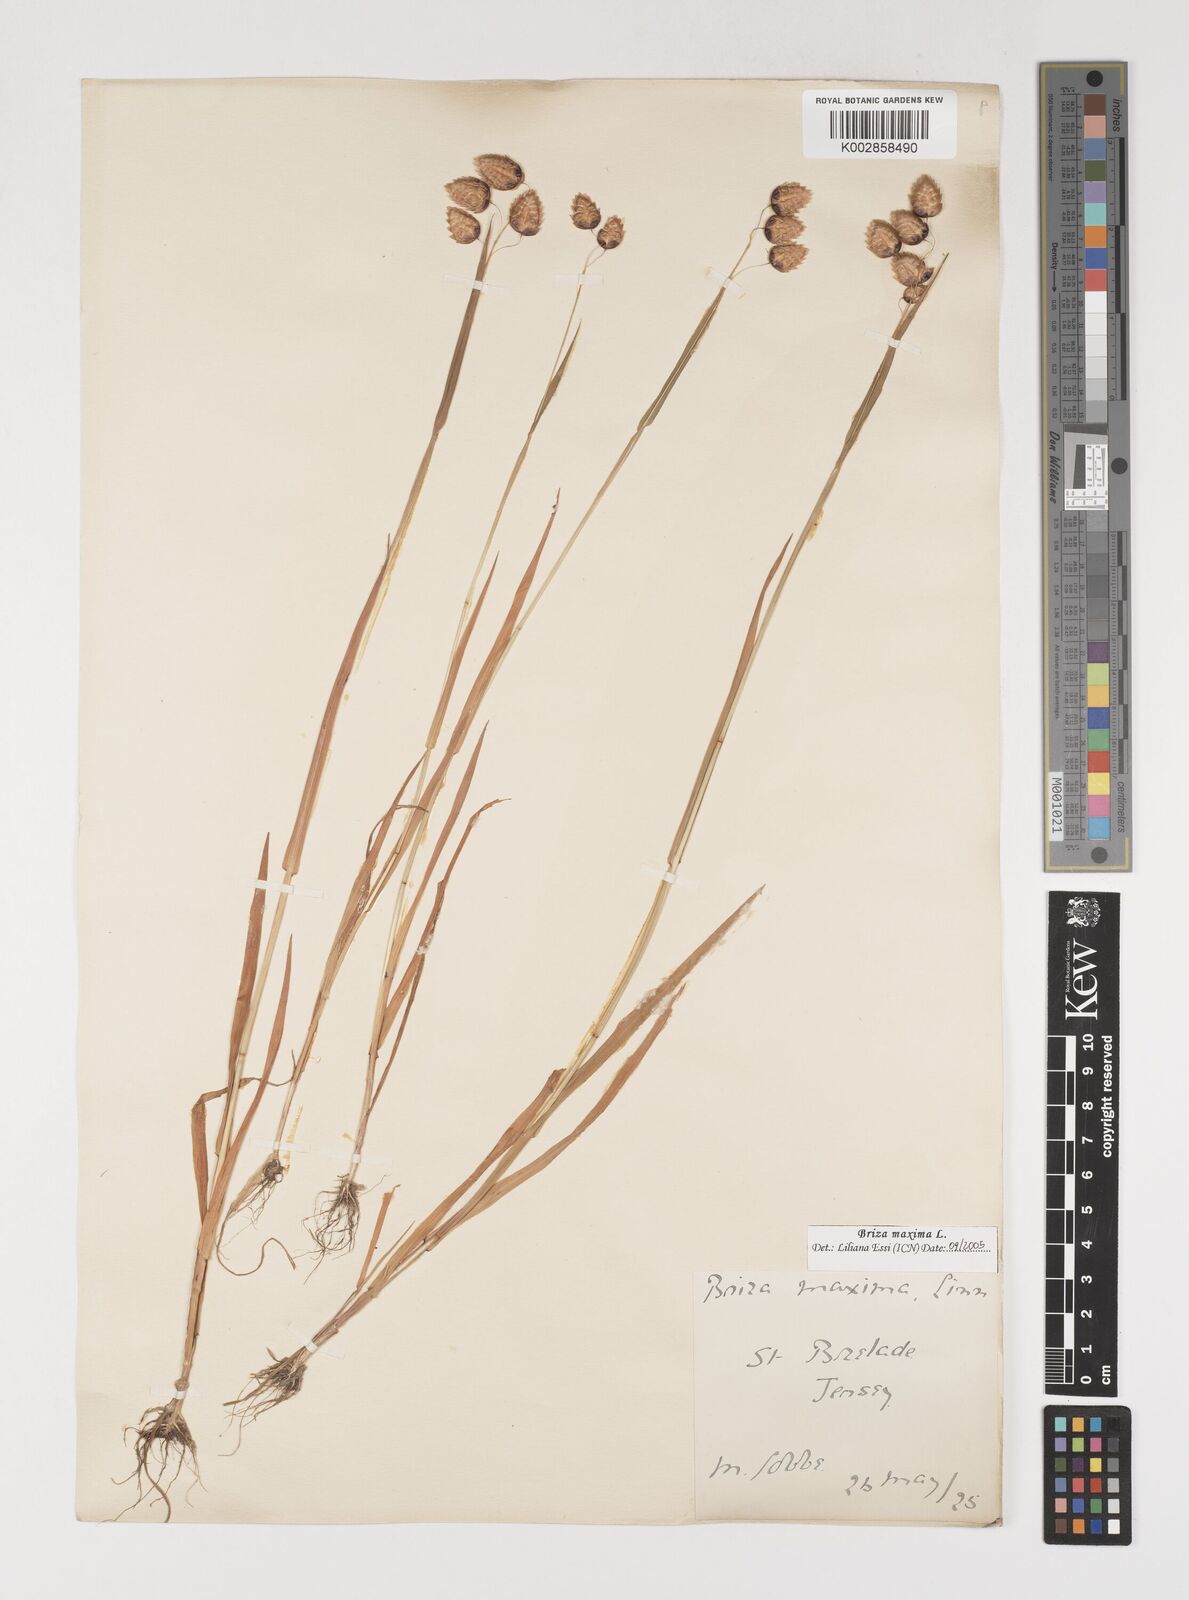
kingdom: Plantae
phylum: Tracheophyta
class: Liliopsida
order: Poales
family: Poaceae
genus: Briza
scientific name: Briza maxima
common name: Big quakinggrass
